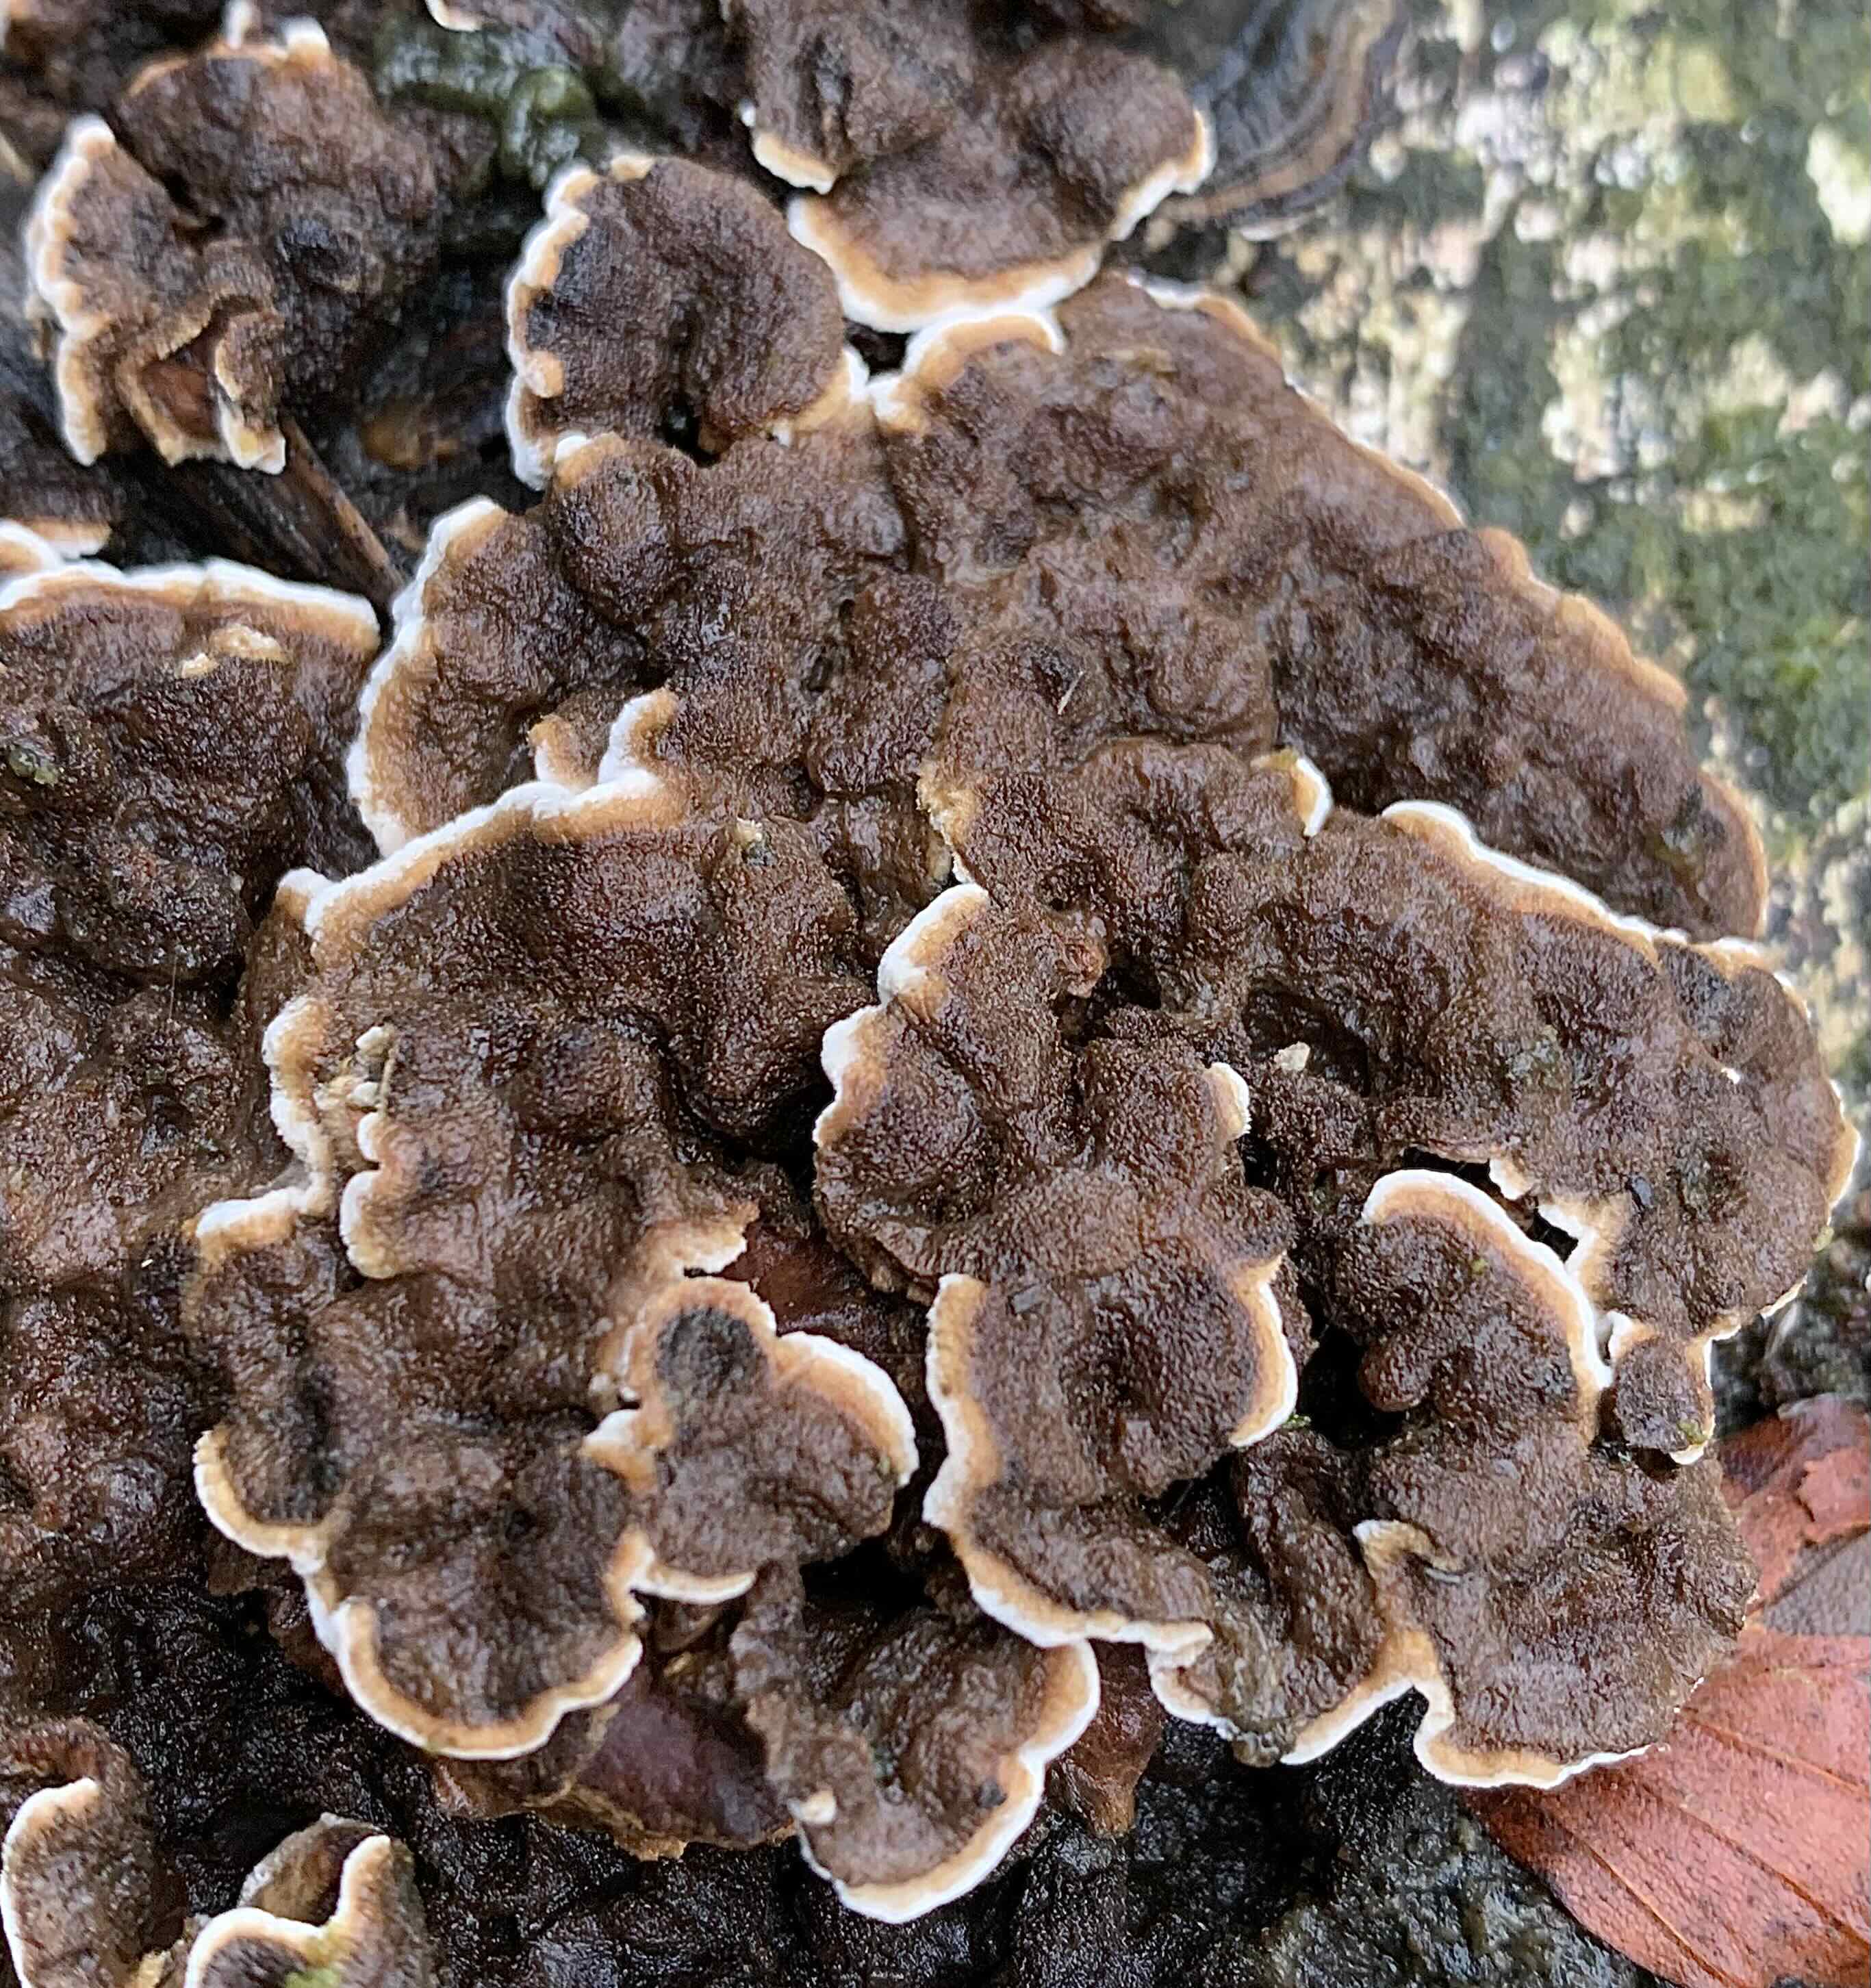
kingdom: Fungi
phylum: Basidiomycota
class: Agaricomycetes
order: Russulales
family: Hericiaceae
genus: Laxitextum
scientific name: Laxitextum bicolor
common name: tvefarvet filtskind
